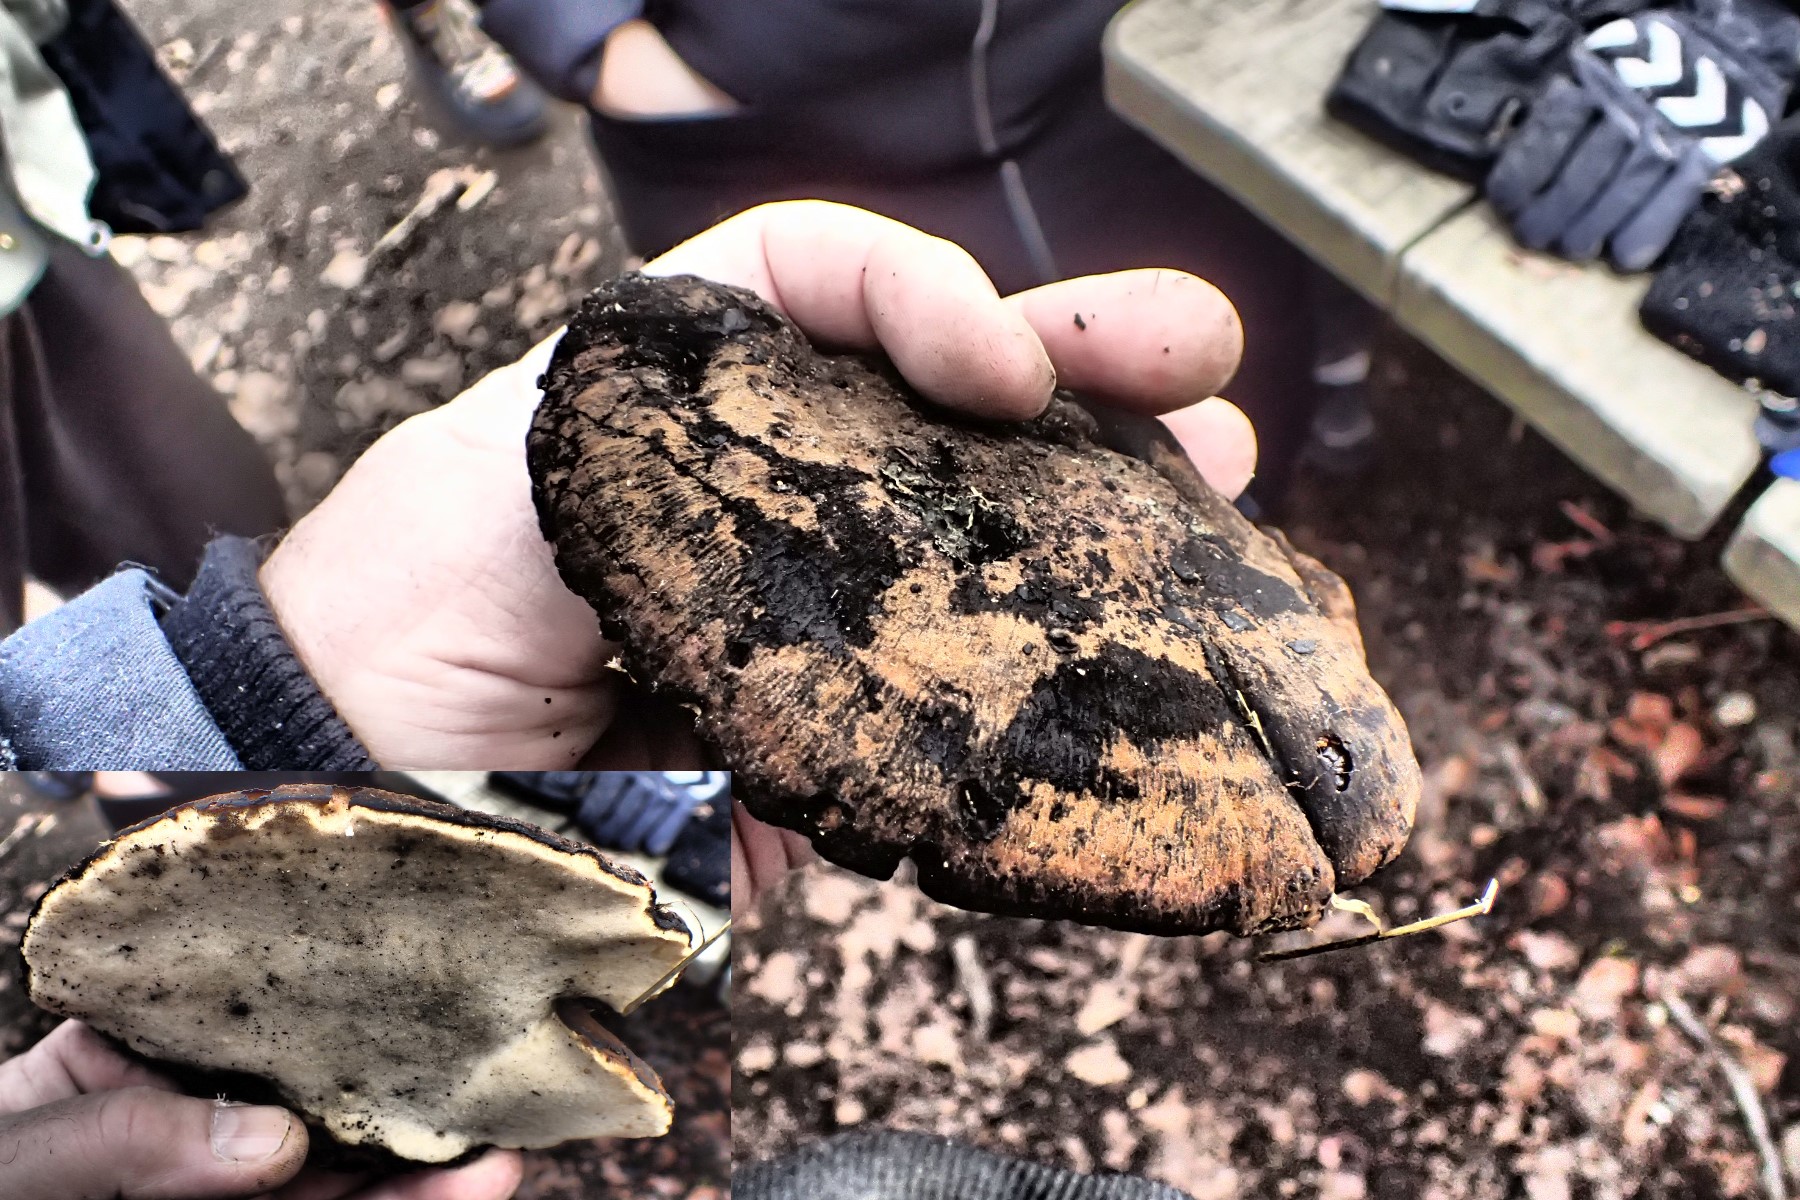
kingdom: Fungi
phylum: Basidiomycota
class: Agaricomycetes
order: Polyporales
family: Ischnodermataceae
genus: Ischnoderma
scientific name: Ischnoderma resinosum
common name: løv-tjæreporesvamp
